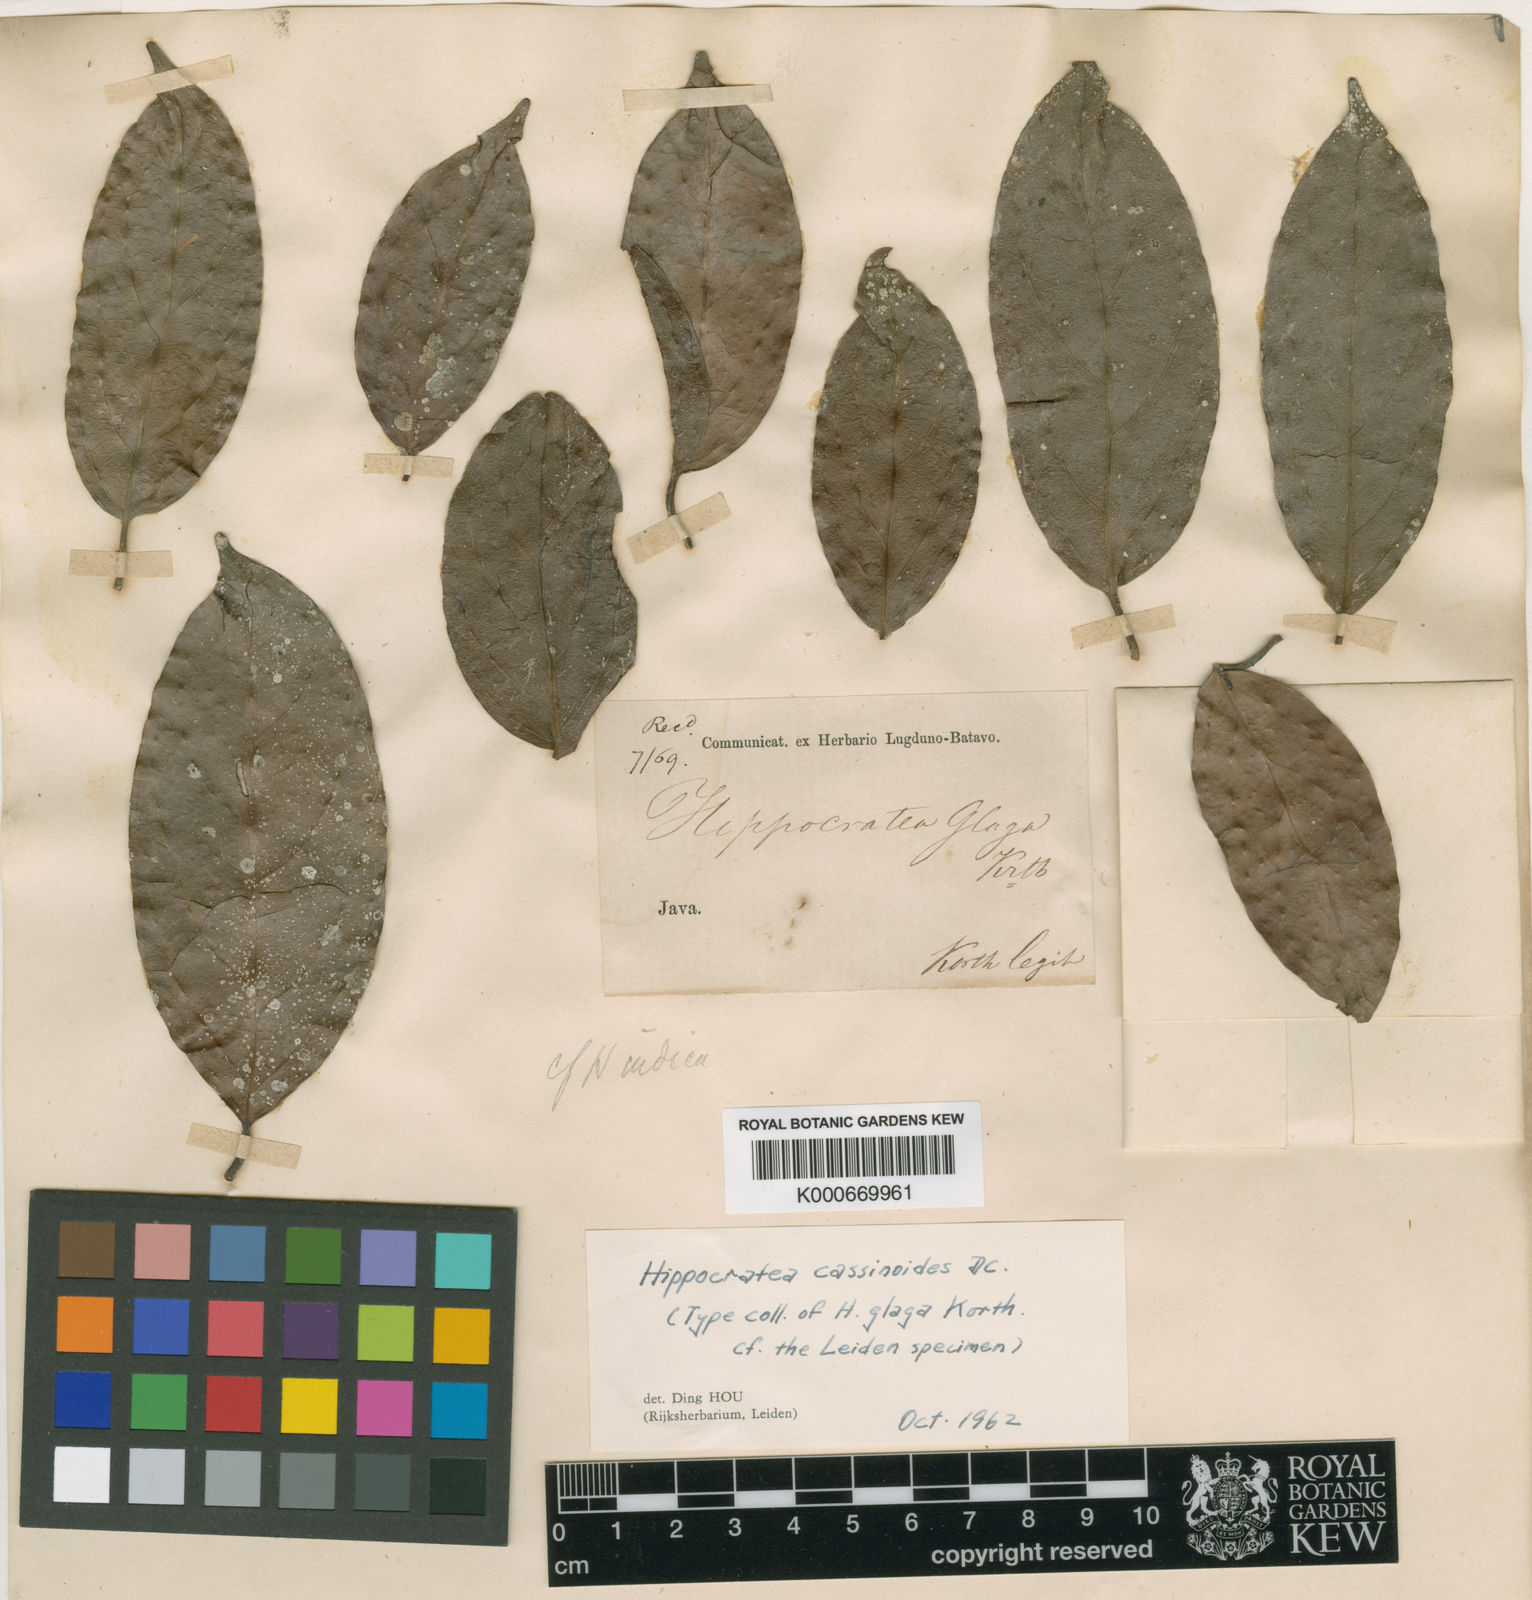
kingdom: Plantae
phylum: Tracheophyta
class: Magnoliopsida
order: Celastrales
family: Celastraceae
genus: Reissantia
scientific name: Reissantia
